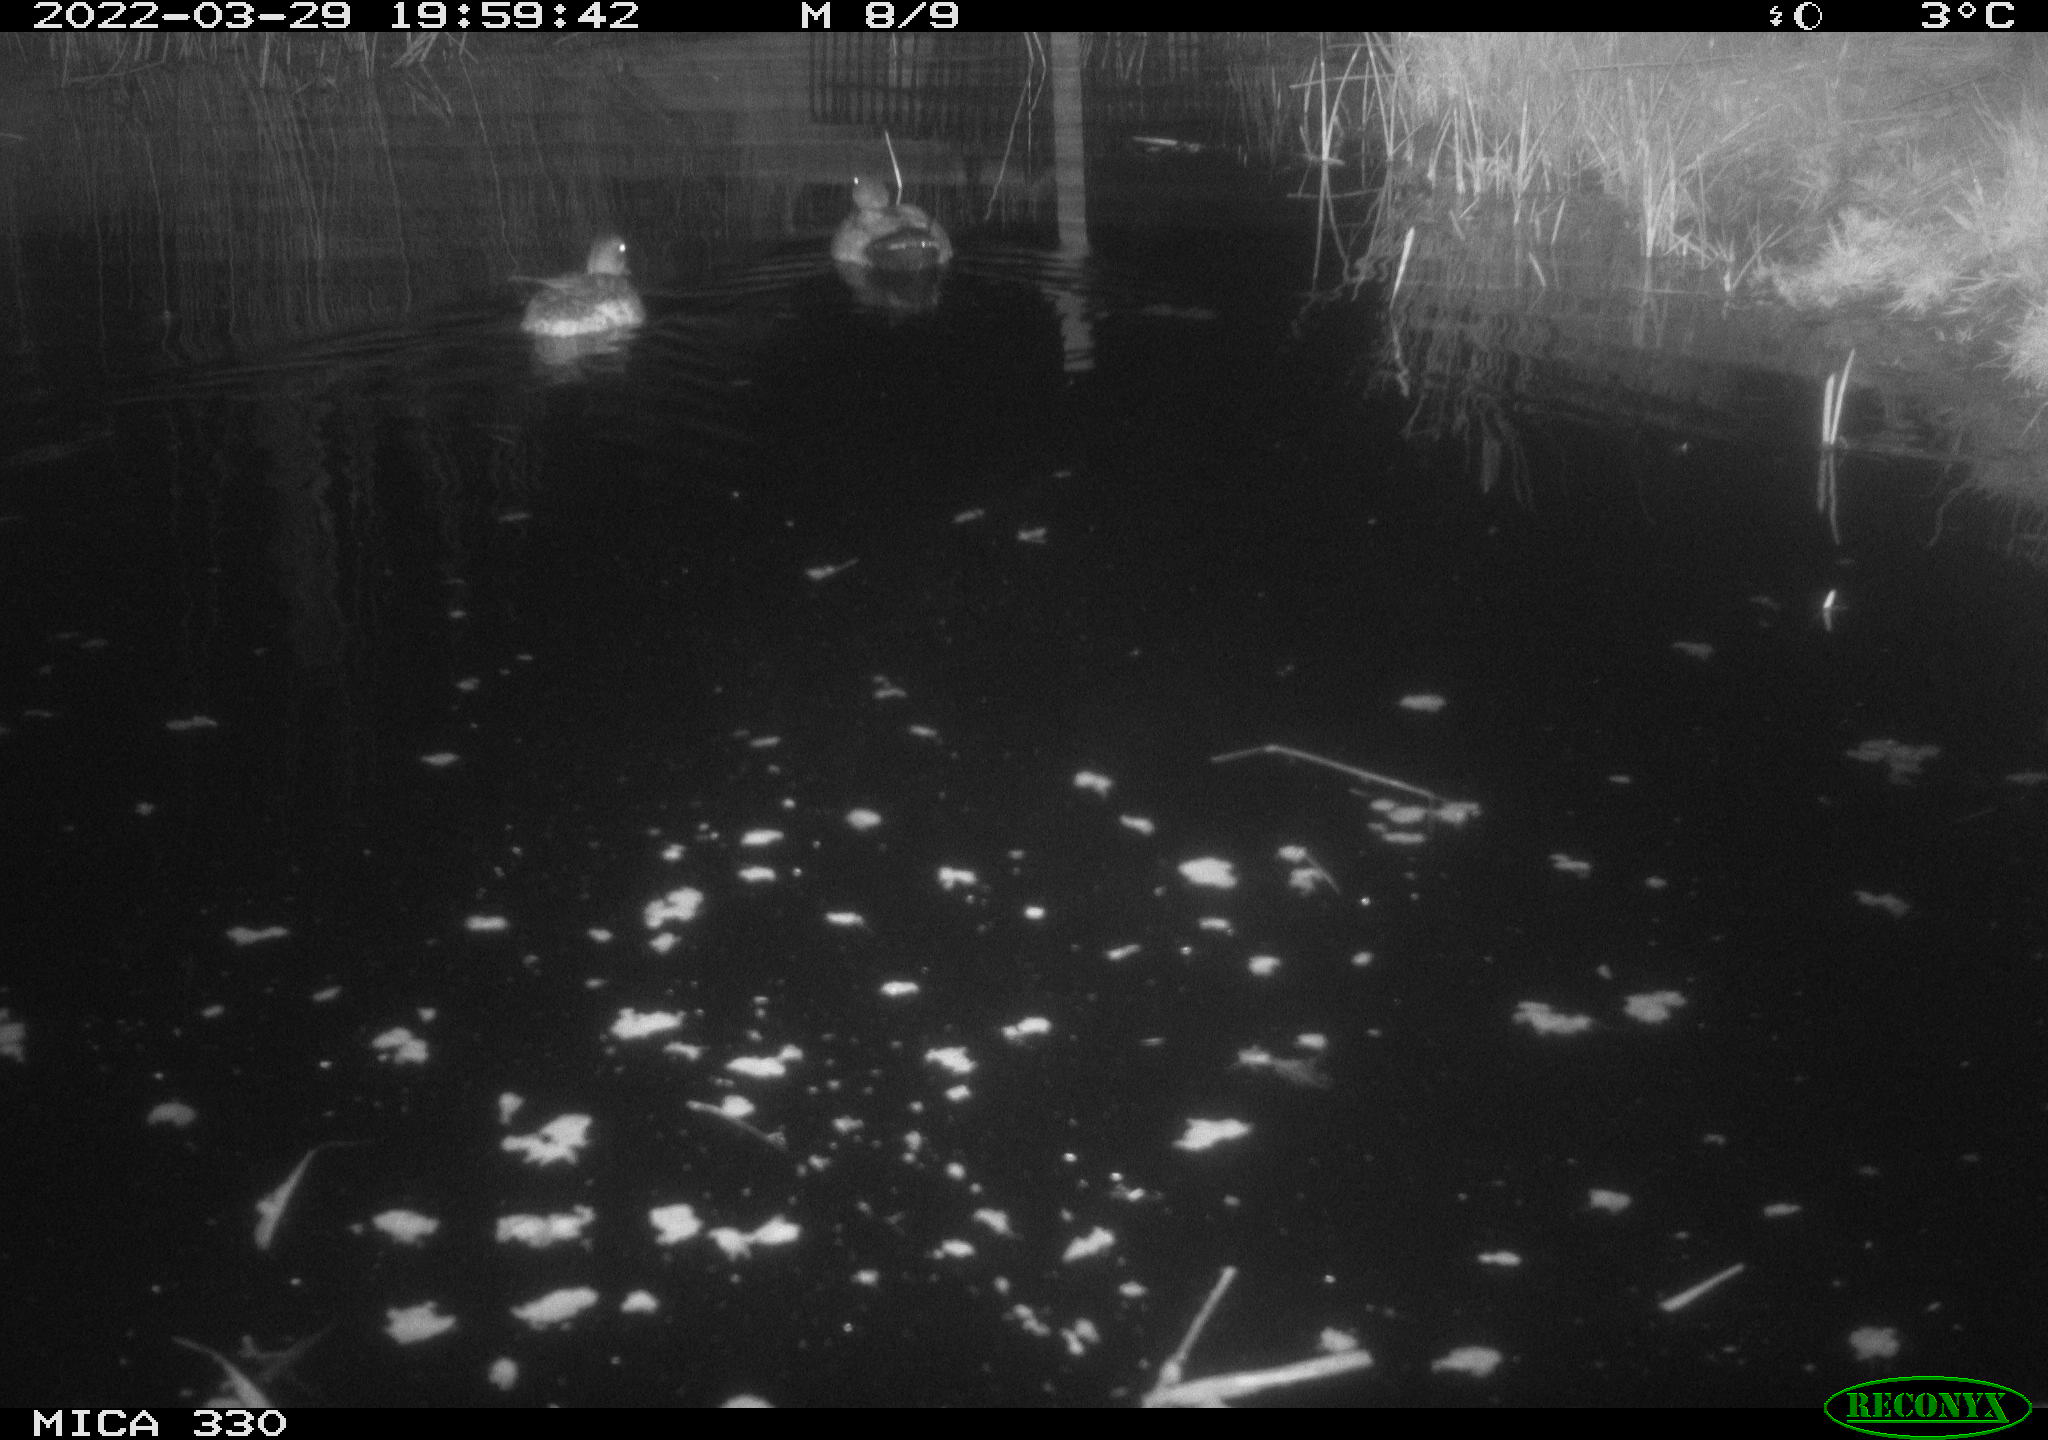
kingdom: Animalia
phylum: Chordata
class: Aves
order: Anseriformes
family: Anatidae
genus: Anas
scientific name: Anas platyrhynchos
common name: Mallard
